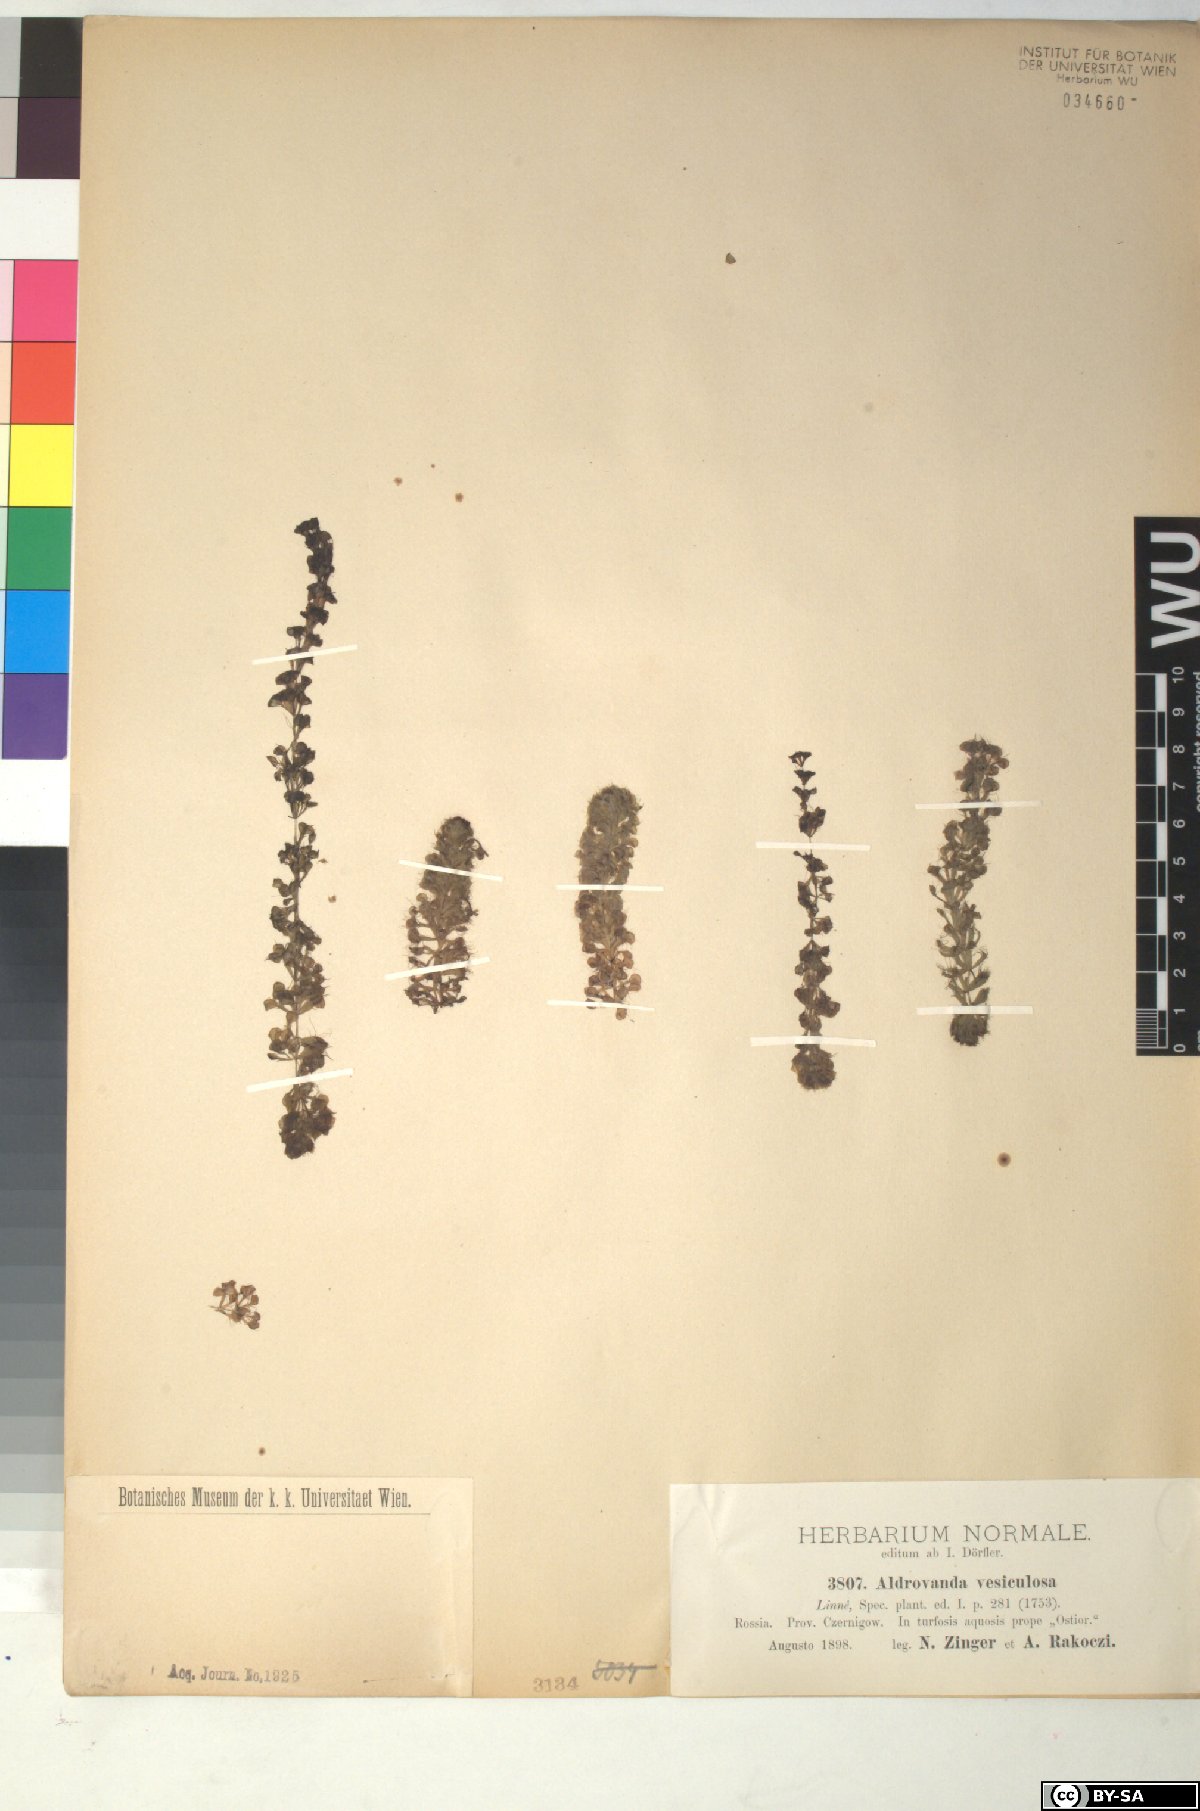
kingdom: Plantae
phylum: Tracheophyta
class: Magnoliopsida
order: Caryophyllales
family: Droseraceae
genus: Aldrovanda
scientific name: Aldrovanda vesiculosa
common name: Waterwheel plant
